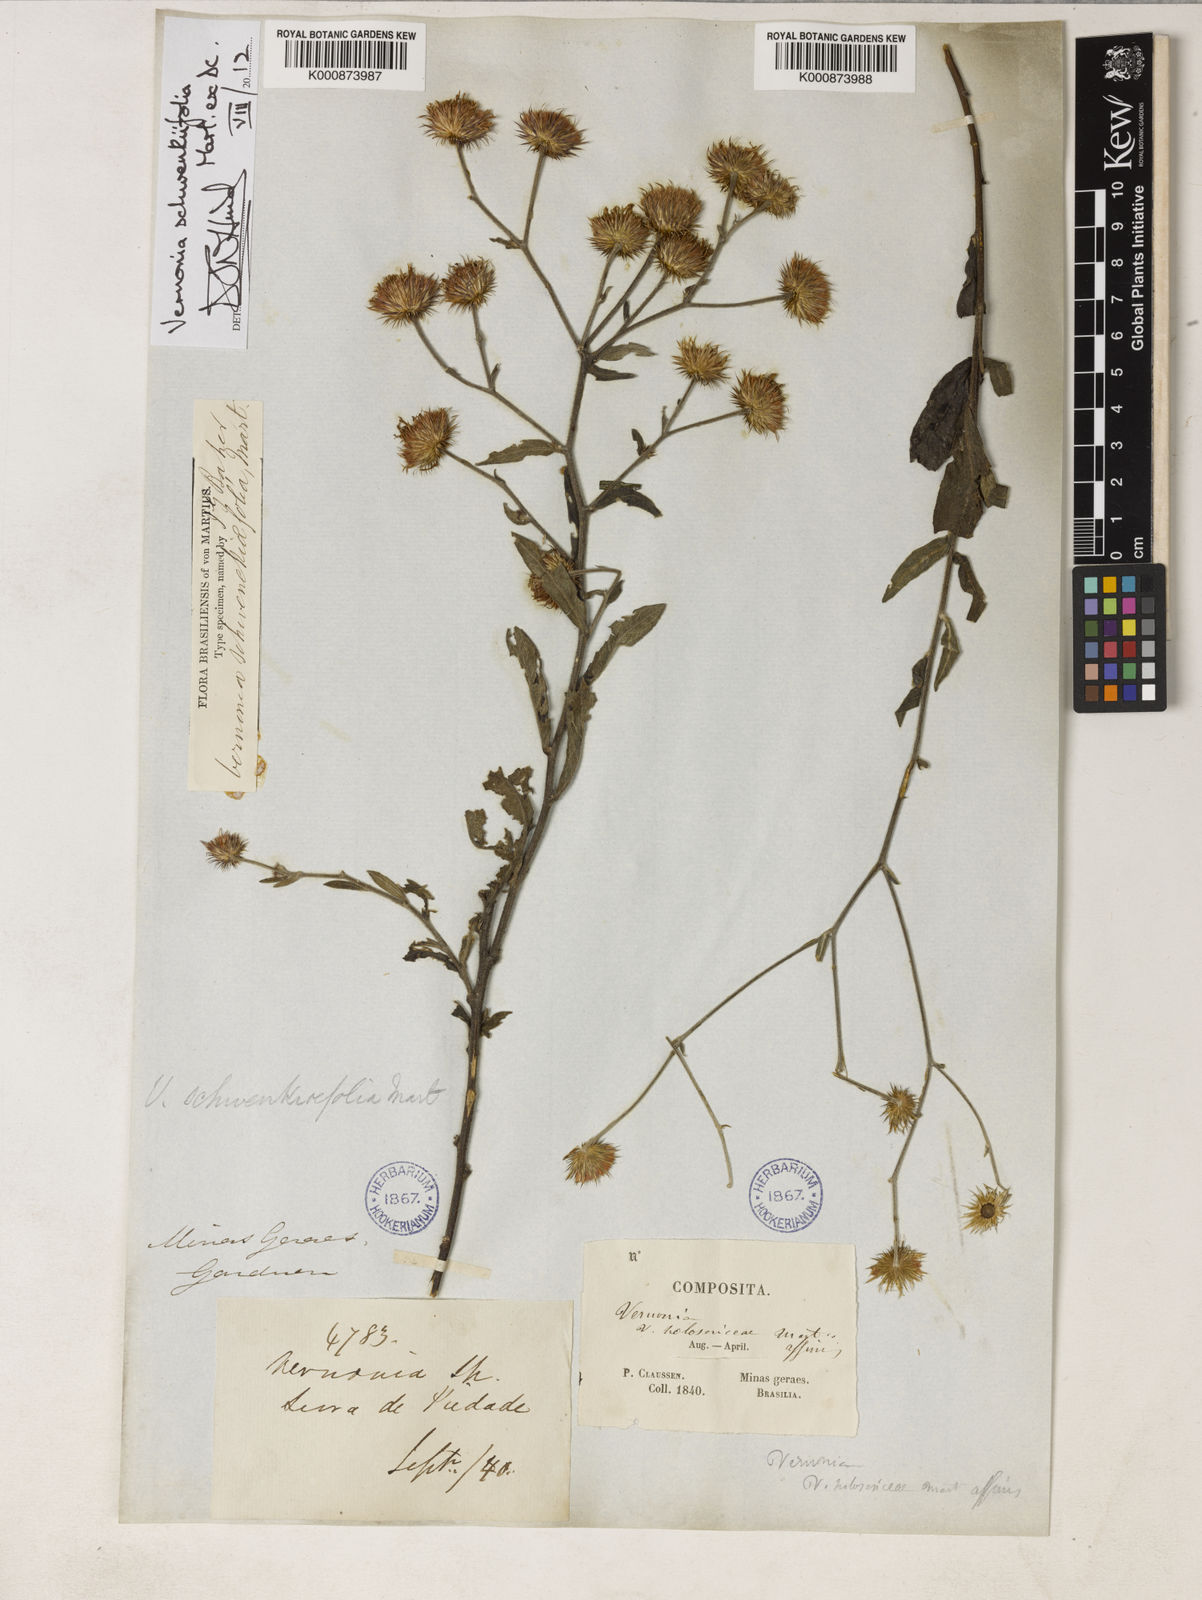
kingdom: Plantae
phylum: Tracheophyta
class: Magnoliopsida
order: Asterales
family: Asteraceae
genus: Vernonia
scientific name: Vernonia
